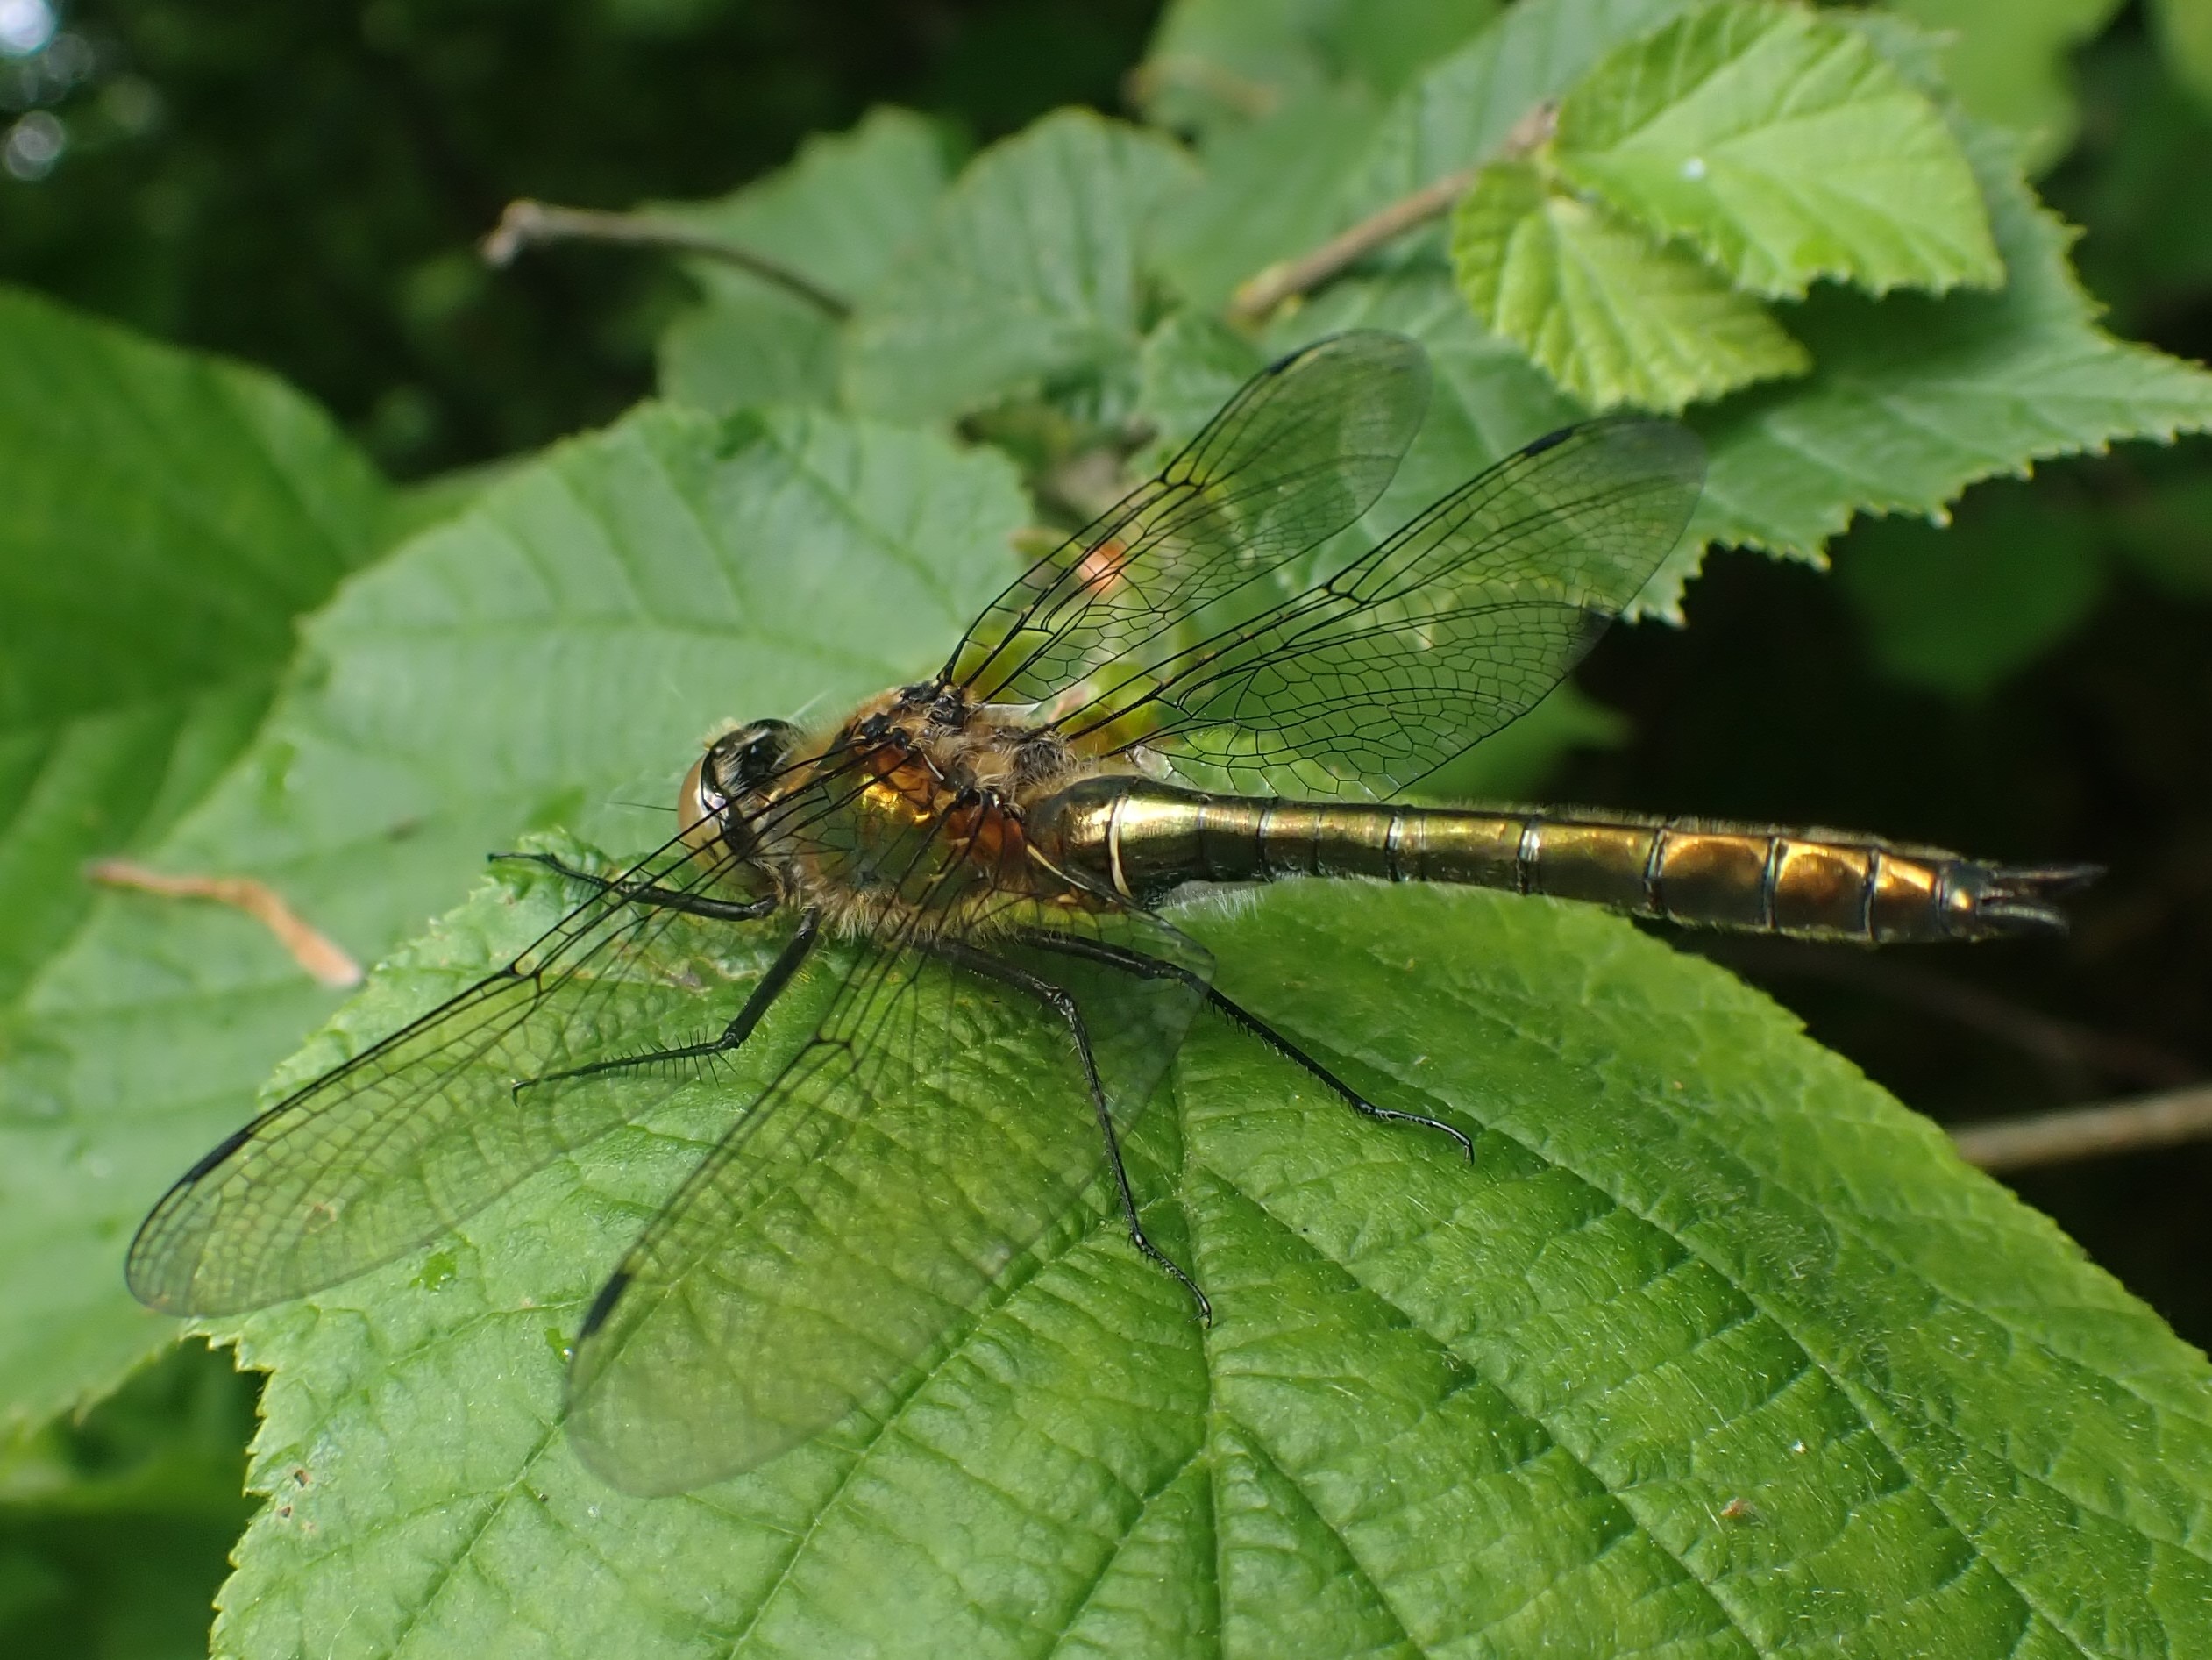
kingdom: Animalia
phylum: Arthropoda
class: Insecta
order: Odonata
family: Corduliidae
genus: Cordulia
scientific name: Cordulia aenea
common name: Grøn smaragdlibel
